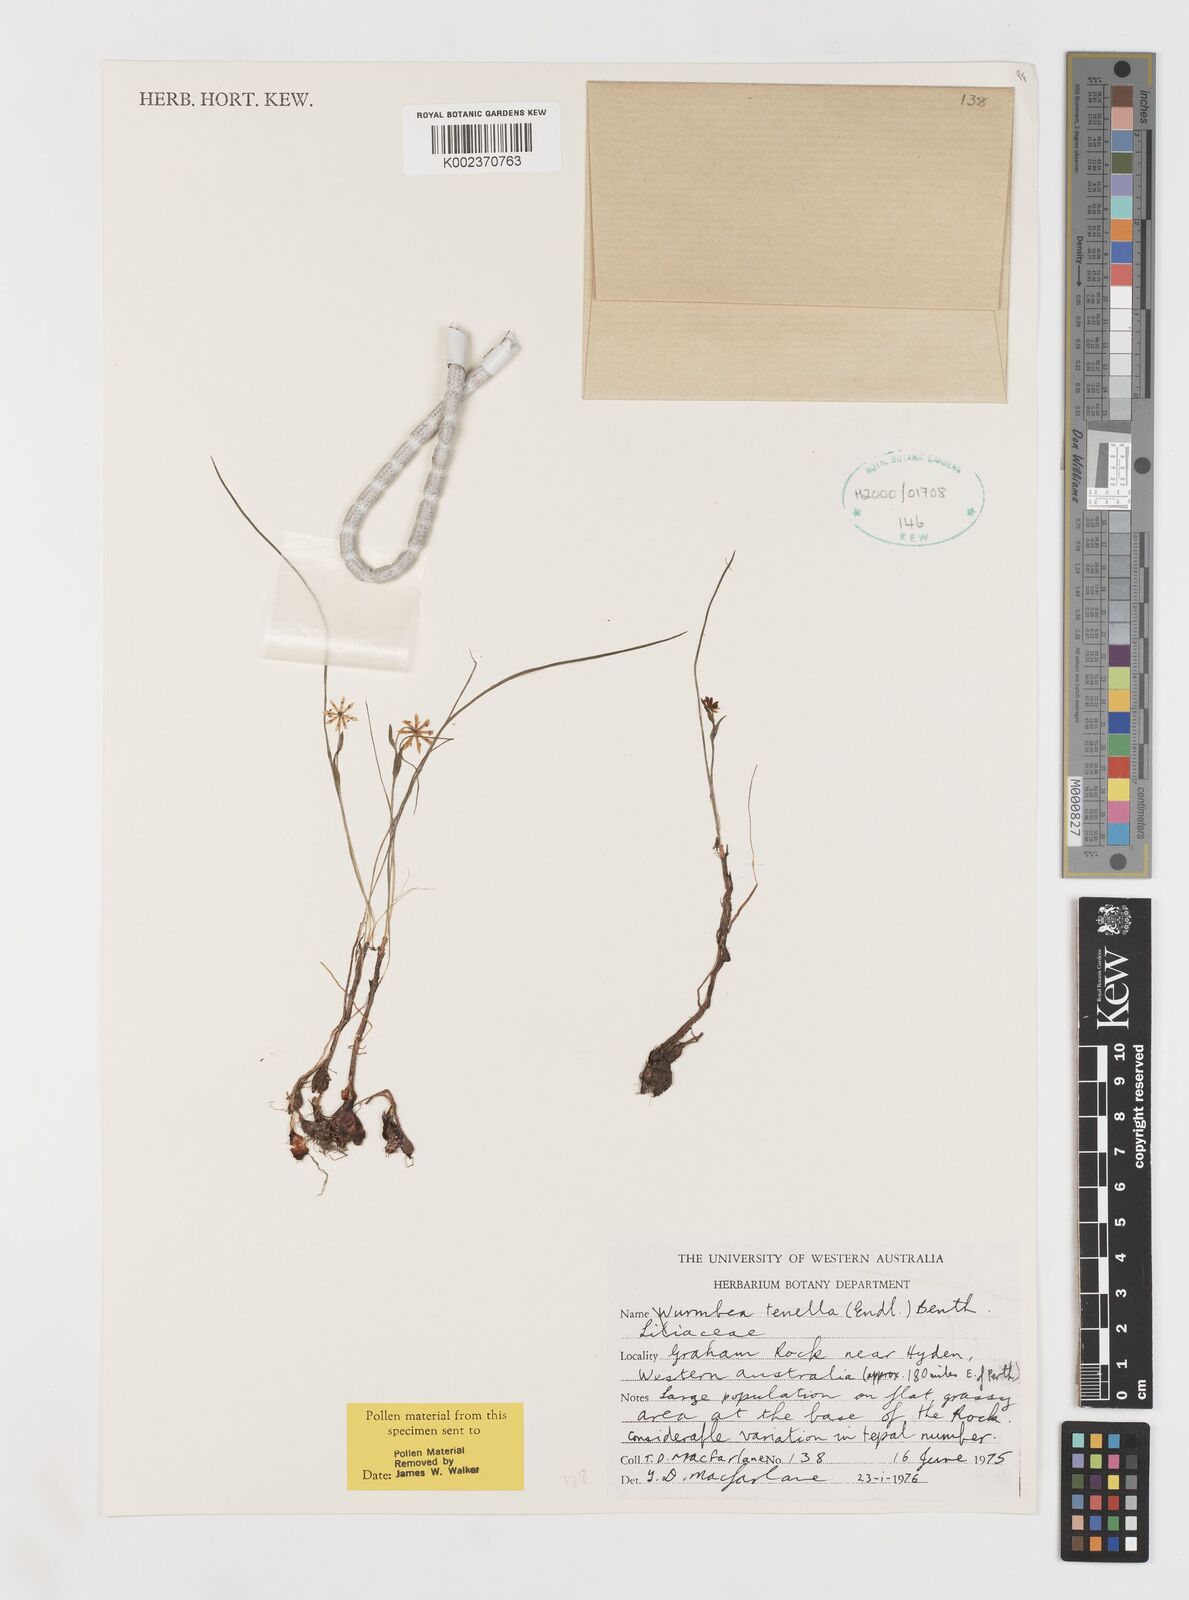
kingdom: Plantae
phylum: Tracheophyta
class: Liliopsida
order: Liliales
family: Colchicaceae
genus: Wurmbea
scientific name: Wurmbea tenella
